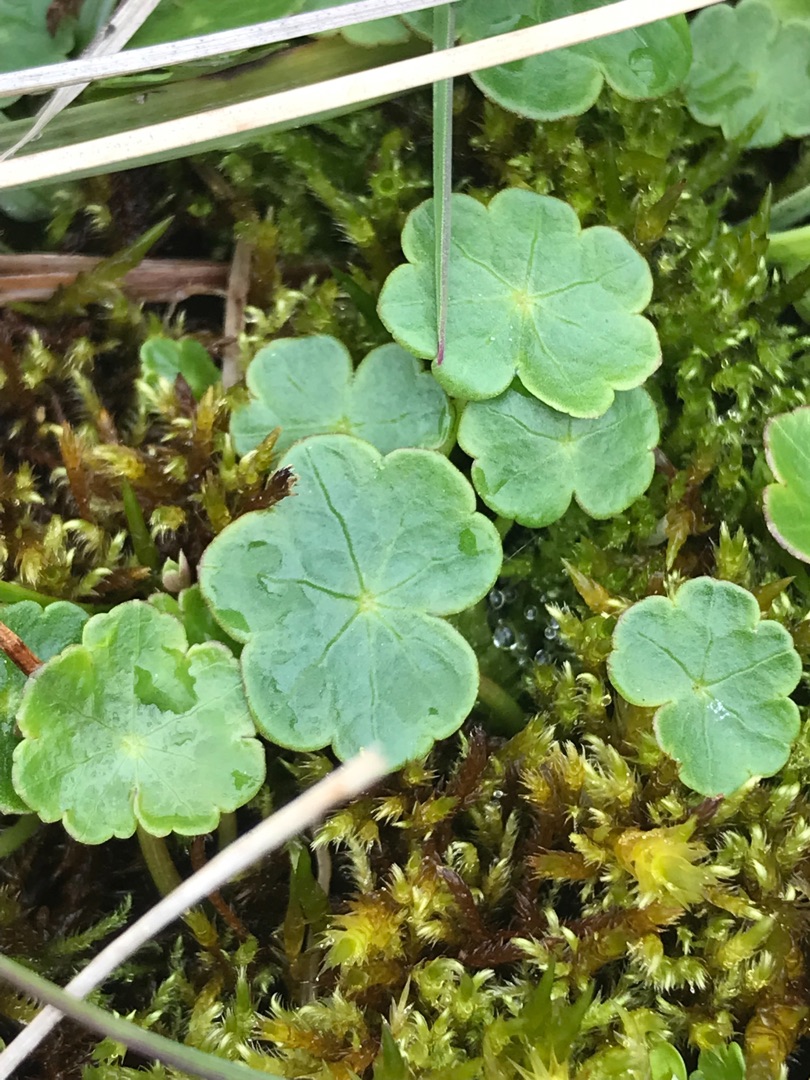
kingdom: Plantae
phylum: Tracheophyta
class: Magnoliopsida
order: Apiales
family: Araliaceae
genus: Hydrocotyle
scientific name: Hydrocotyle vulgaris
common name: Vandnavle
